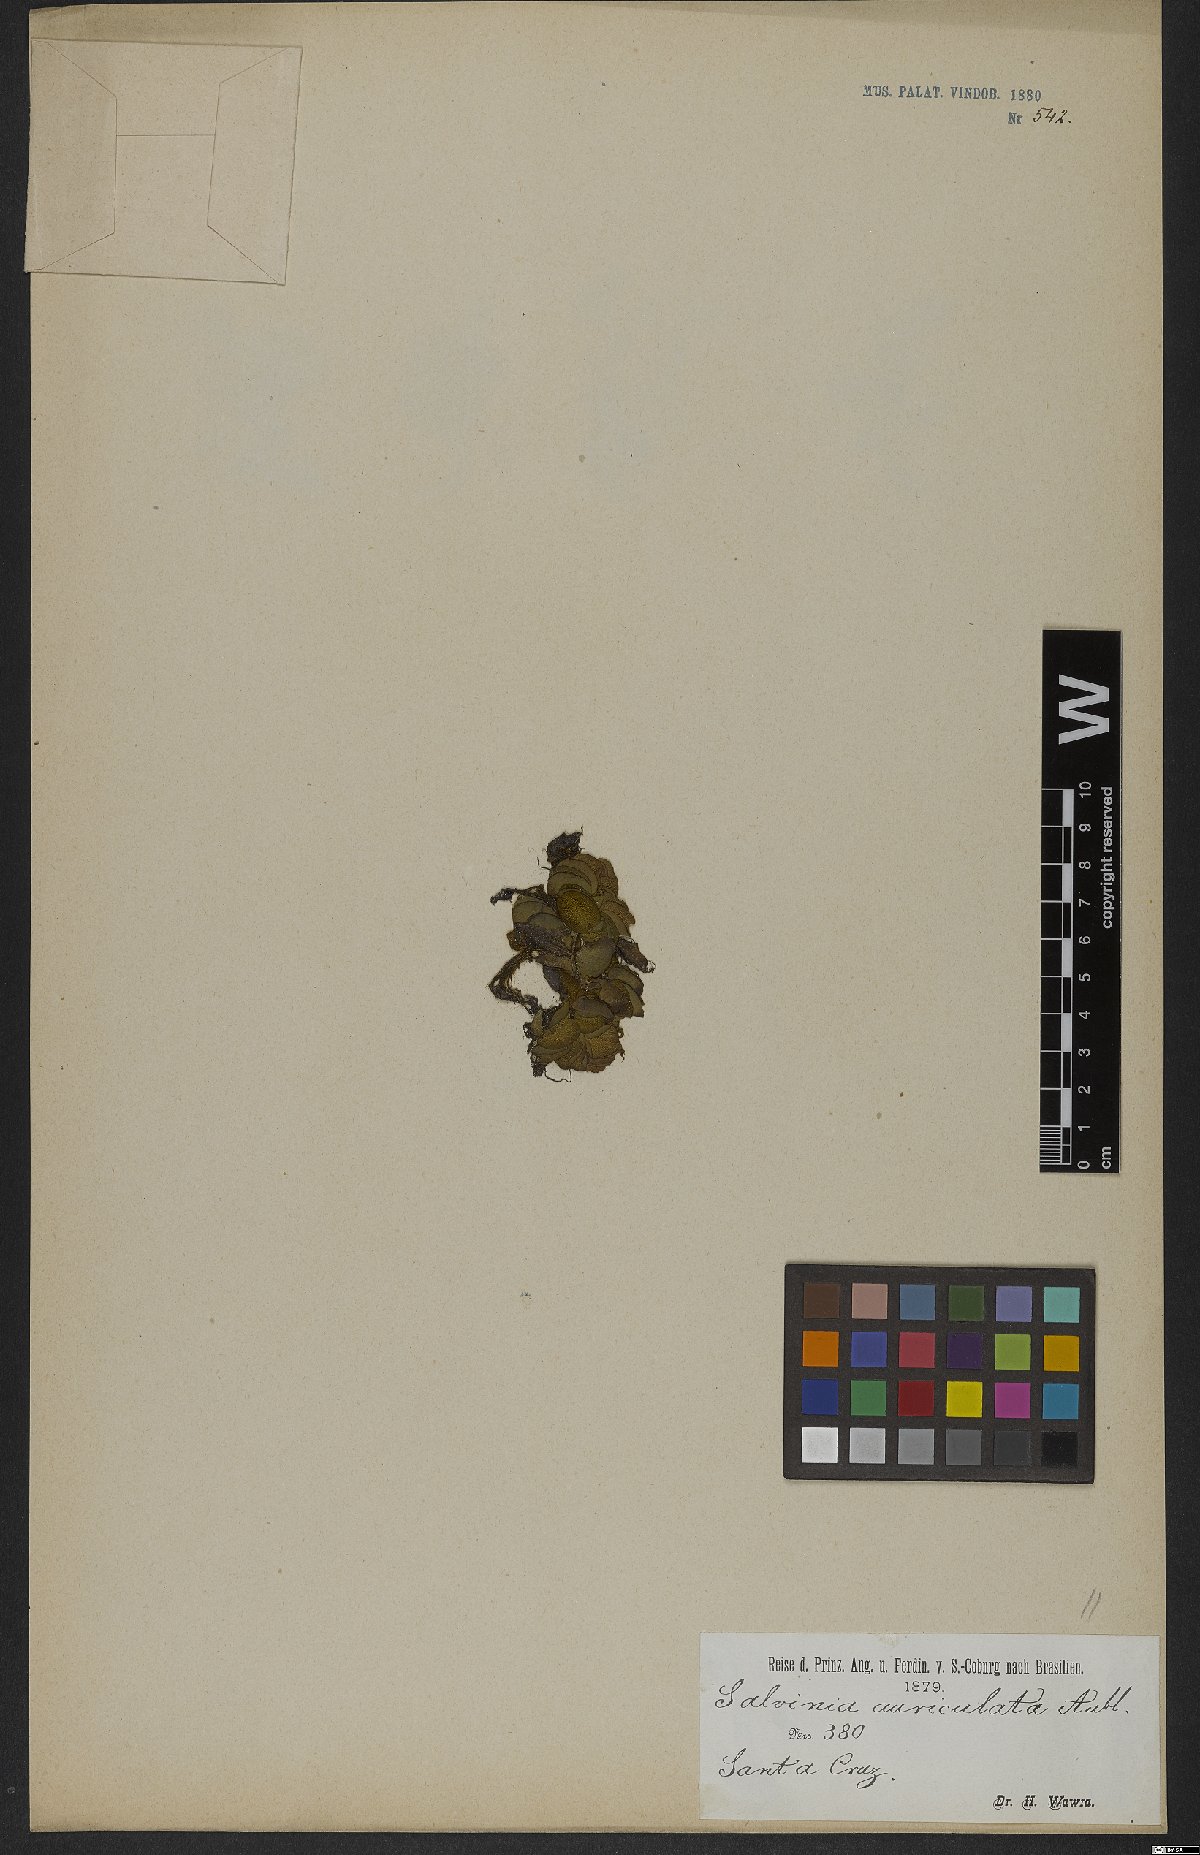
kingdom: Plantae
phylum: Tracheophyta
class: Polypodiopsida
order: Salviniales
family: Salviniaceae
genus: Salvinia
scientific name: Salvinia auriculata
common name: African payal
